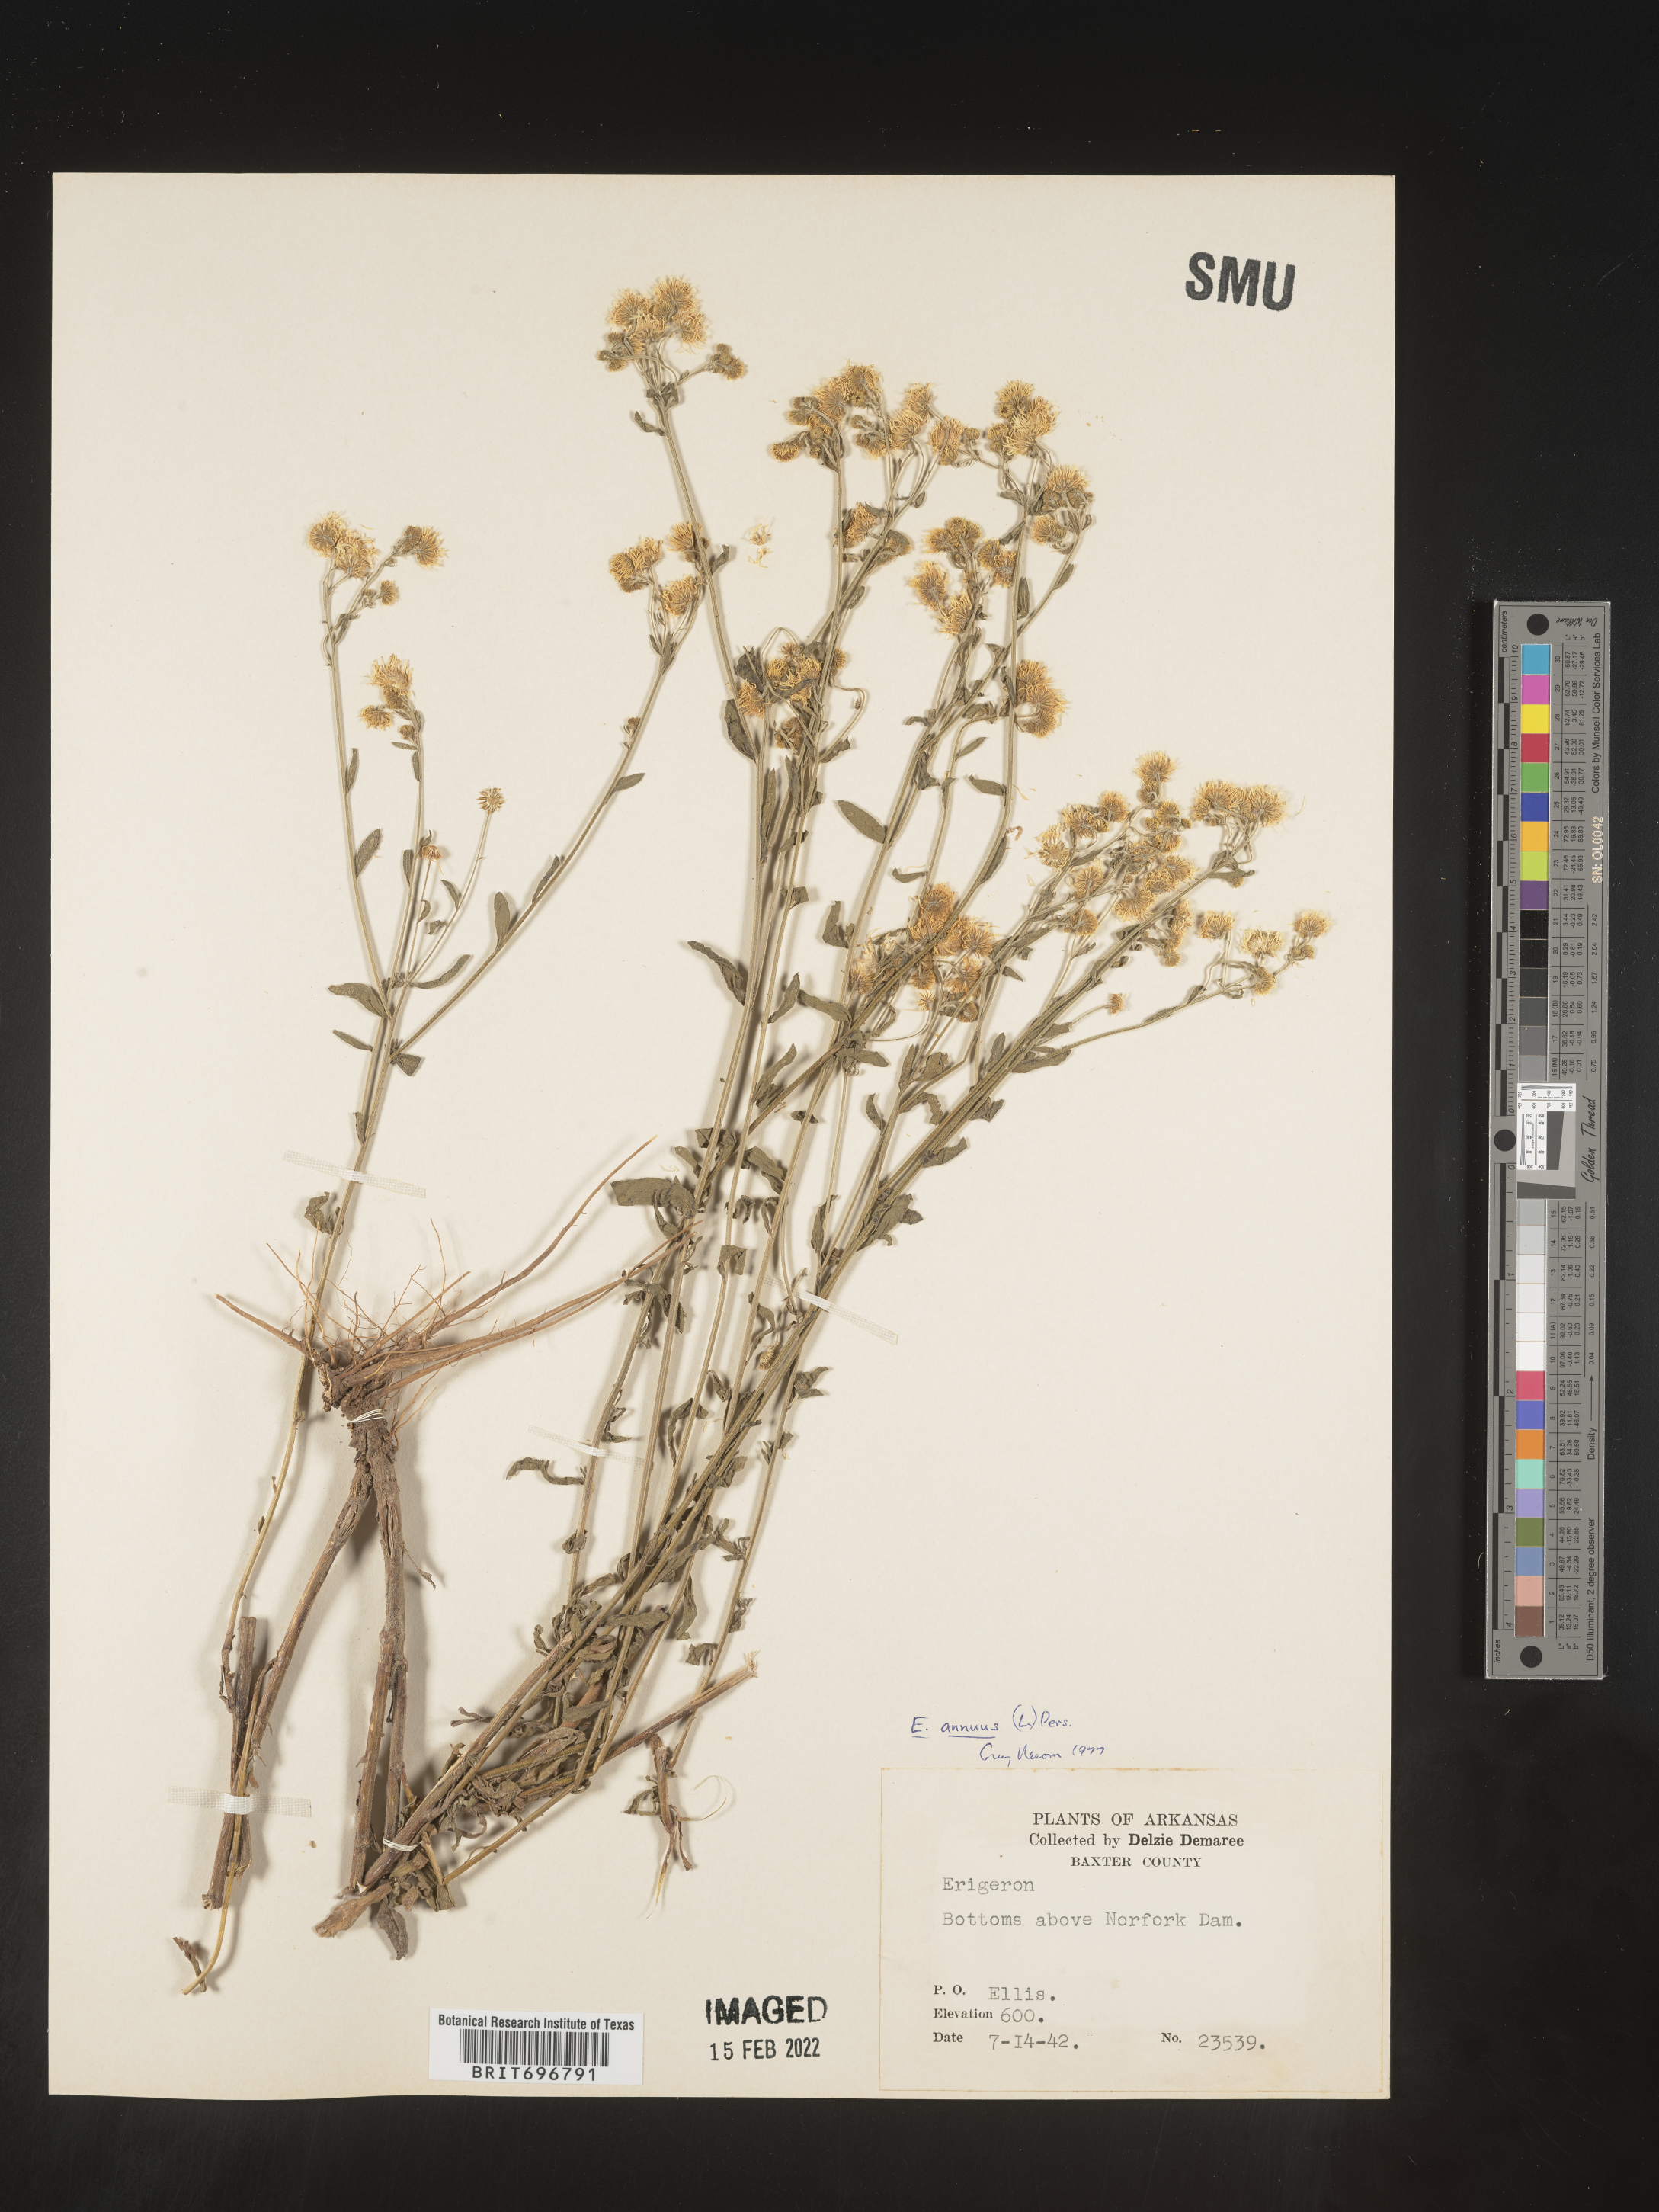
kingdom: Plantae
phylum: Tracheophyta
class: Magnoliopsida
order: Asterales
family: Asteraceae
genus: Erigeron
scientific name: Erigeron annuus
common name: Tall fleabane
